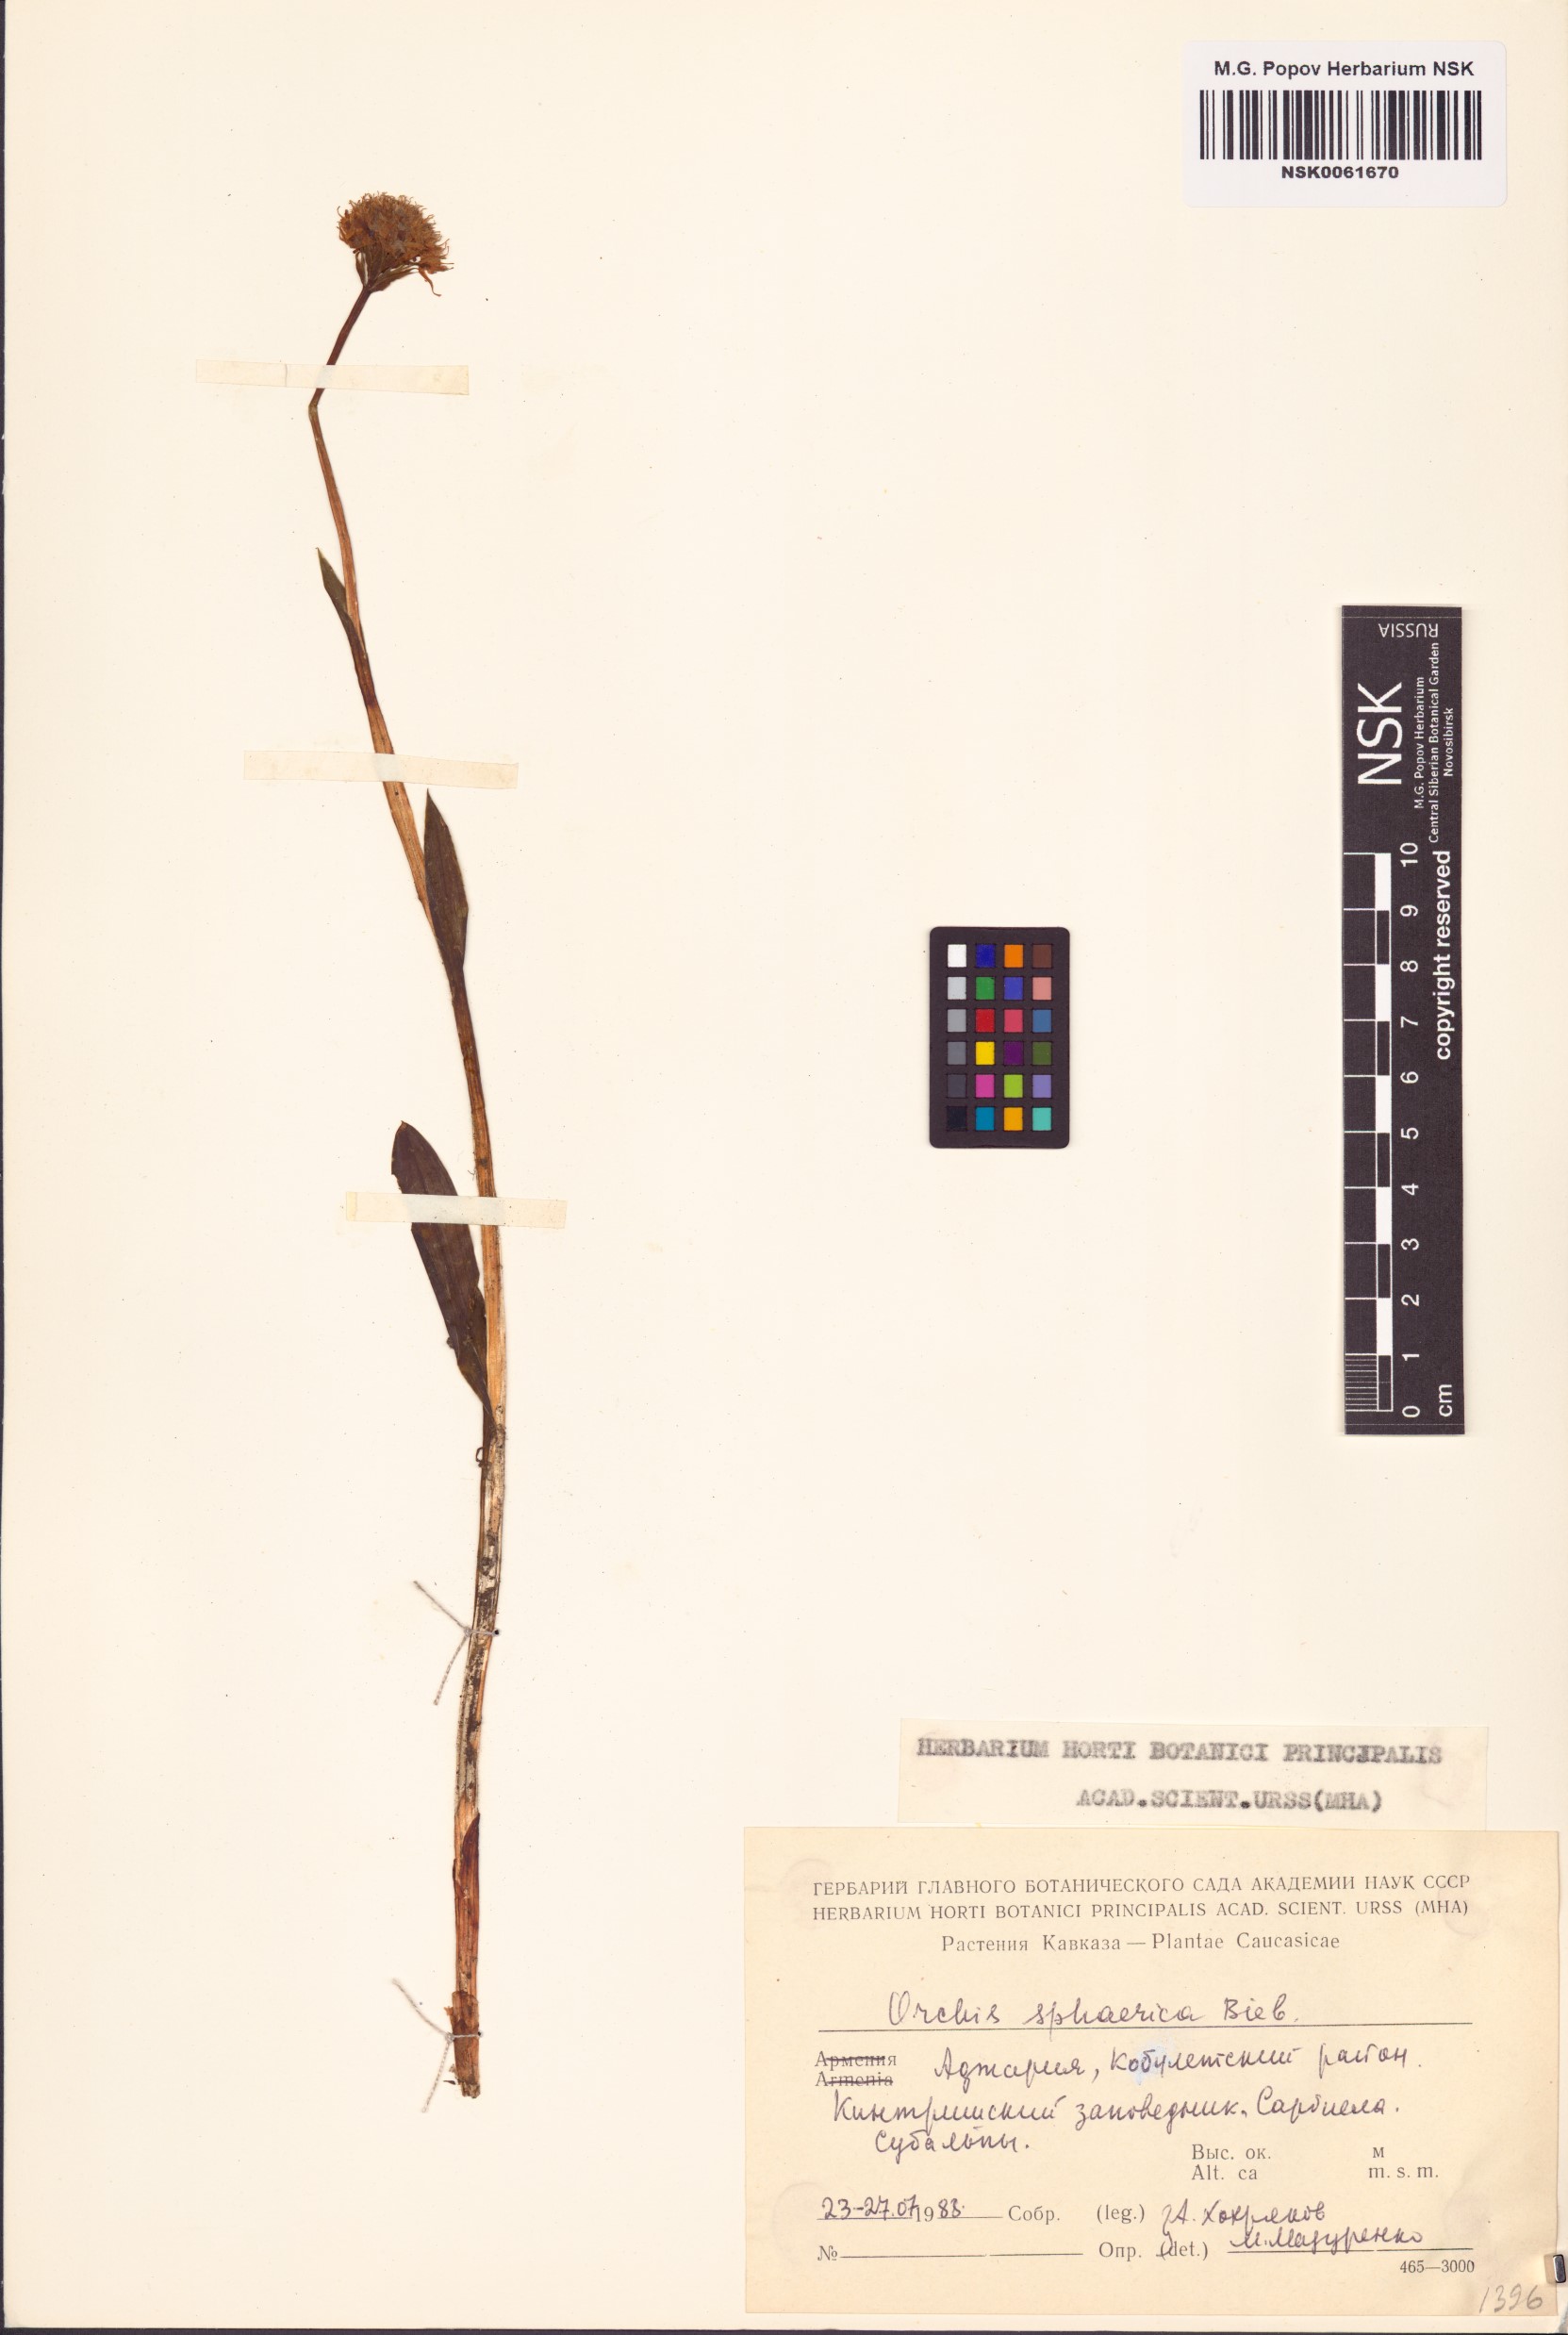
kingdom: Plantae
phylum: Tracheophyta
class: Liliopsida
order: Asparagales
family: Orchidaceae
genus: Traunsteinera
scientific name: Traunsteinera sphaerica
